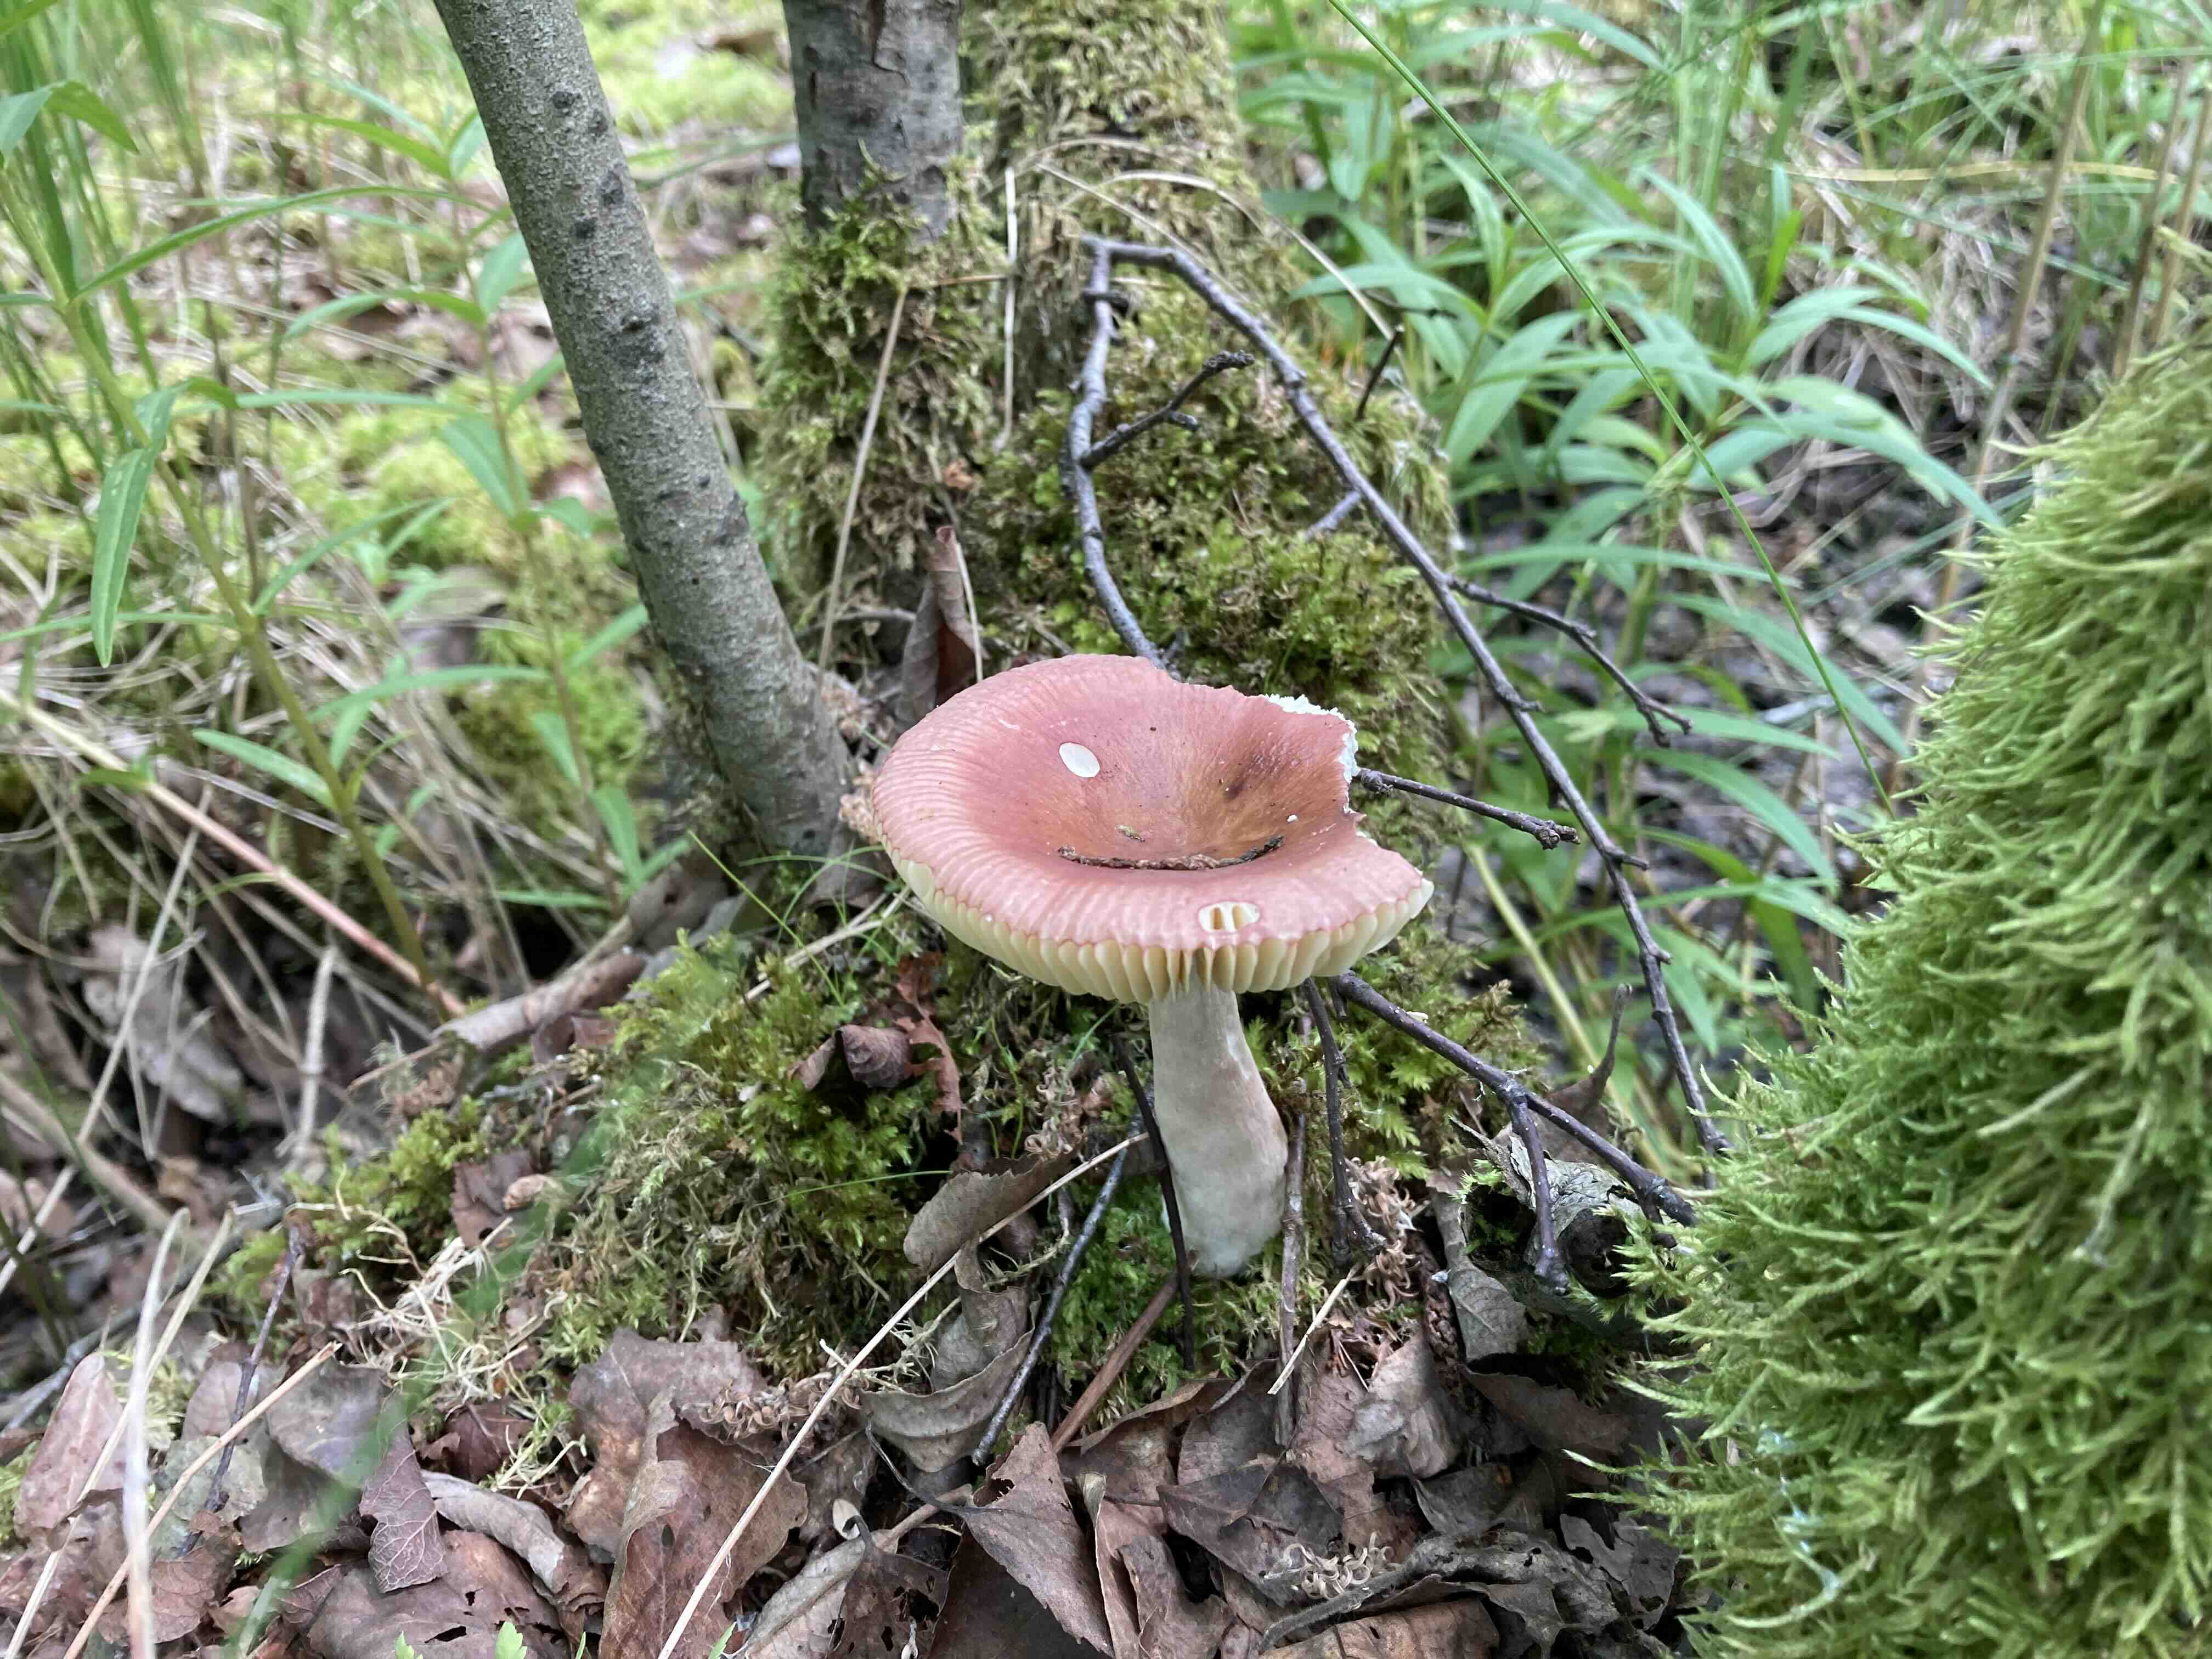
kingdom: Fungi
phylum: Basidiomycota
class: Agaricomycetes
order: Russulales
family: Russulaceae
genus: Russula
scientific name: Russula nitida
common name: året skørhat
